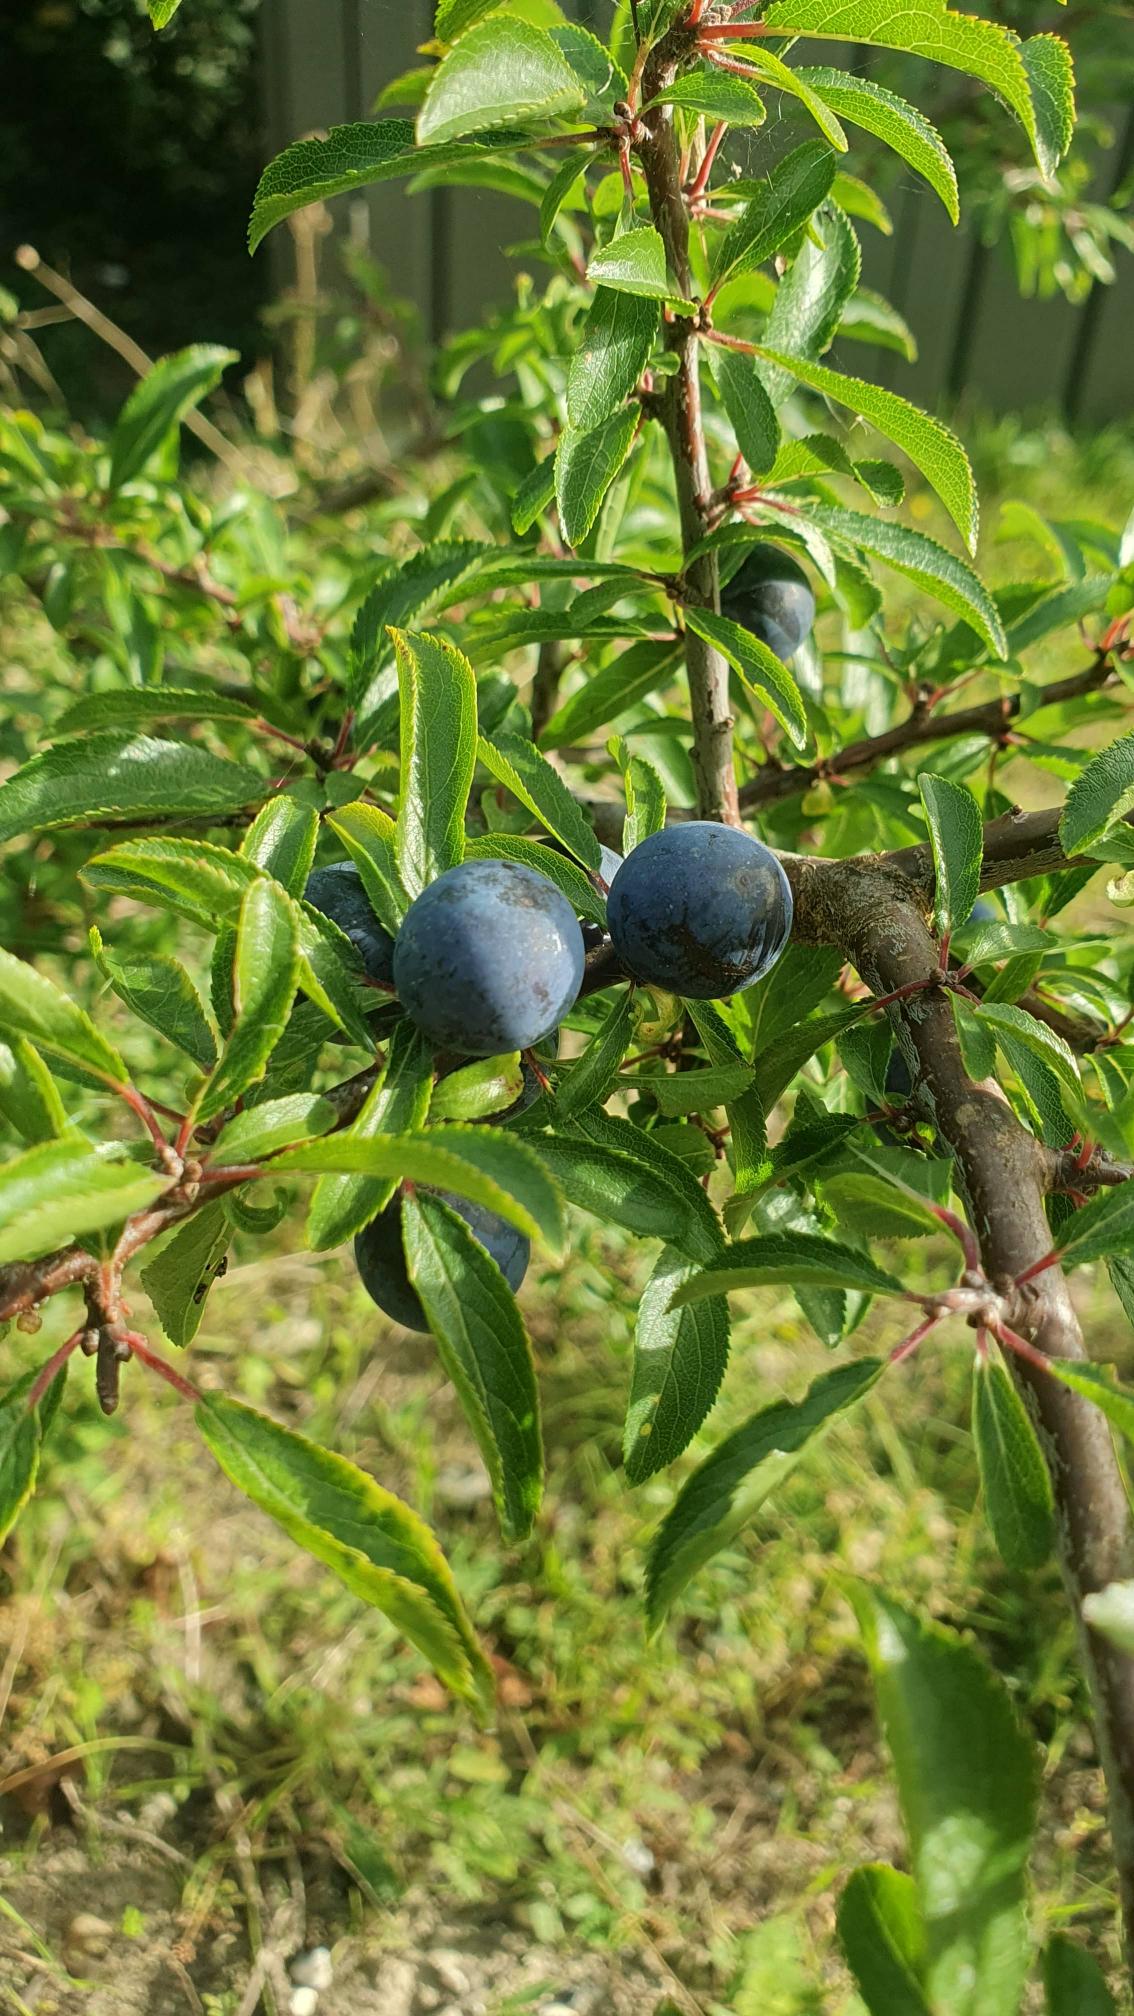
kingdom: Plantae
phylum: Tracheophyta
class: Magnoliopsida
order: Rosales
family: Rosaceae
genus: Prunus
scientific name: Prunus spinosa
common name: Slåen
